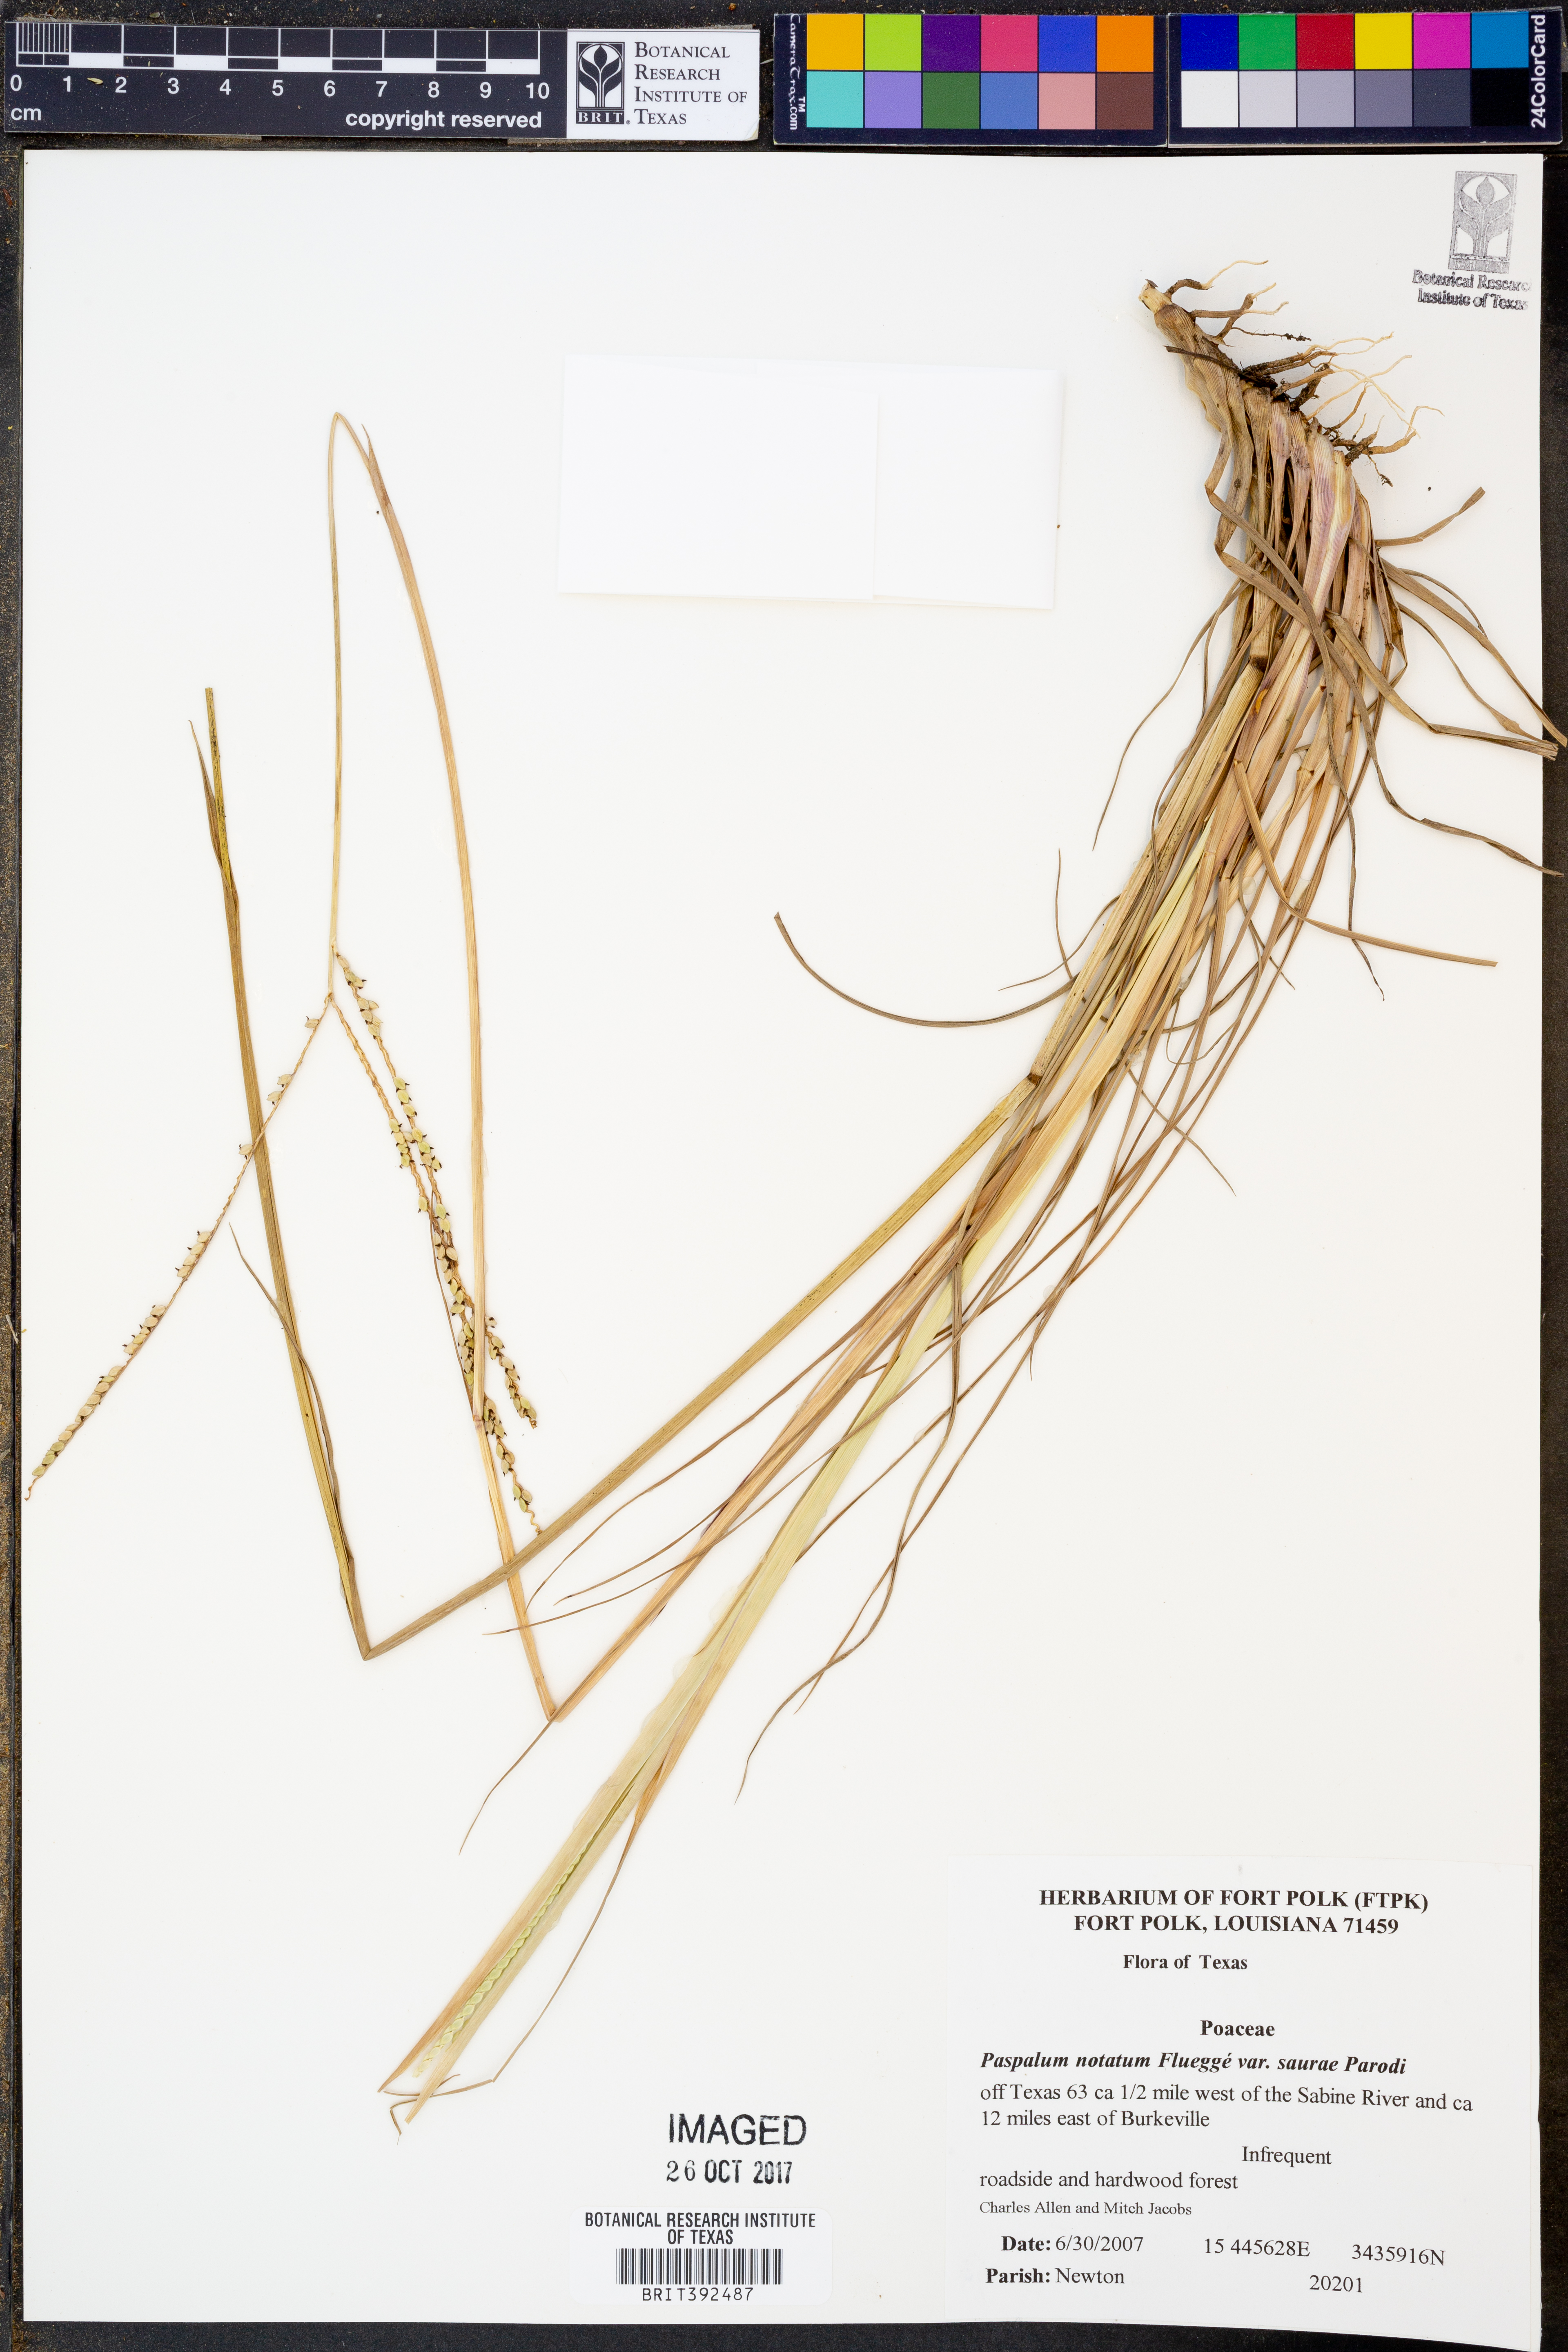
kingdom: Plantae
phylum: Tracheophyta
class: Liliopsida
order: Poales
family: Poaceae
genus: Paspalum
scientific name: Paspalum notatum
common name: Bahiagrass
